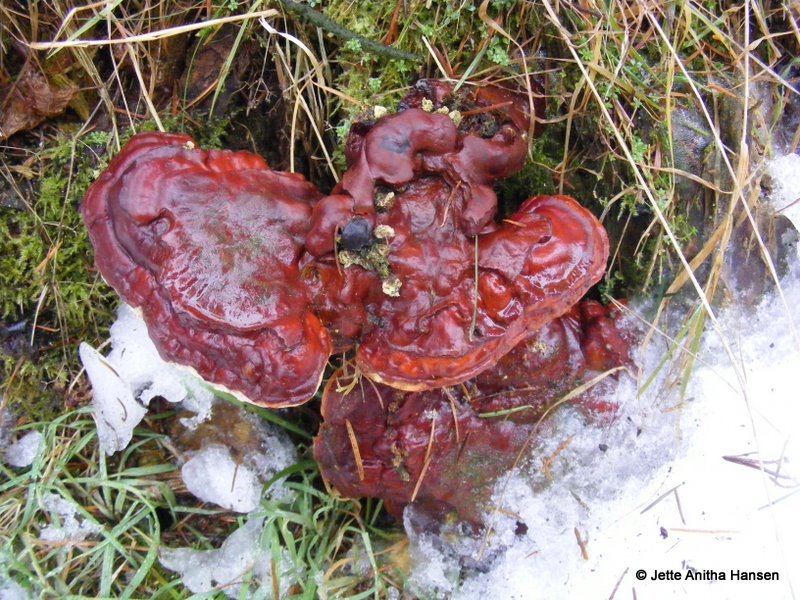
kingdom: Fungi
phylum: Basidiomycota
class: Agaricomycetes
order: Polyporales
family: Polyporaceae
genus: Ganoderma
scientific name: Ganoderma lucidum
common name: skinnende lakporesvamp
